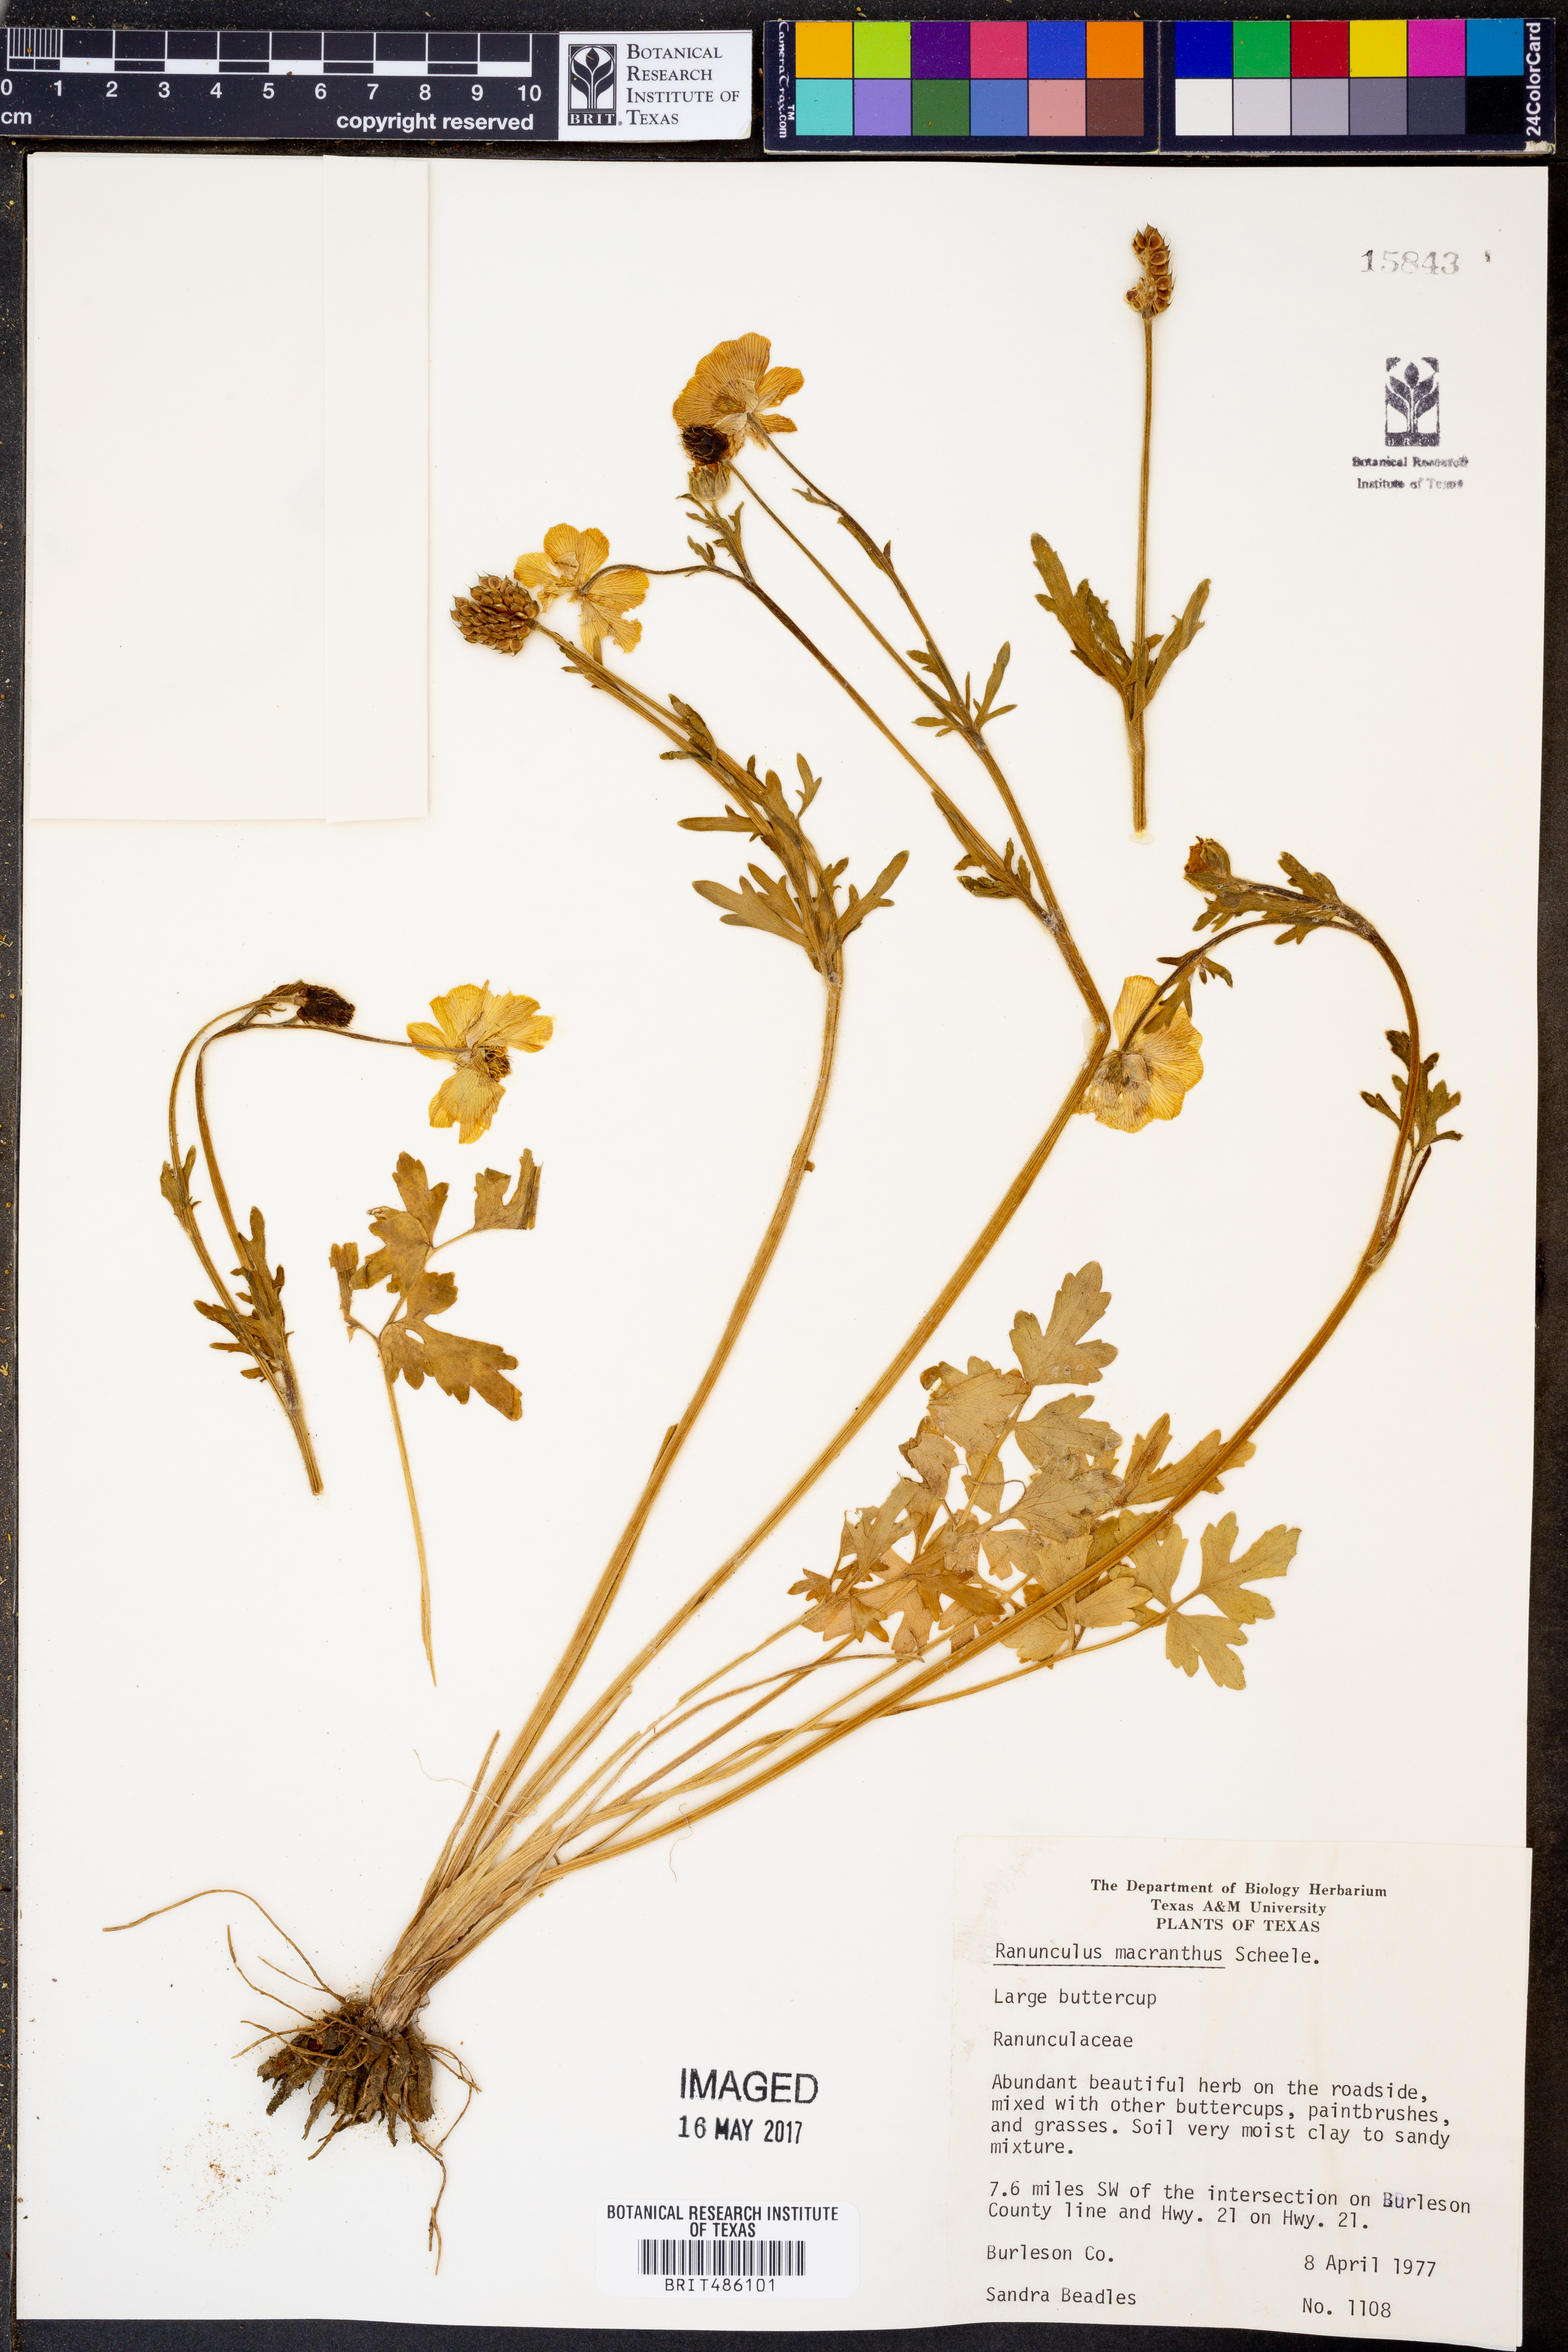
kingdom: Plantae
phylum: Tracheophyta
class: Magnoliopsida
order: Ranunculales
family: Ranunculaceae
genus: Ranunculus
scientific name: Ranunculus macranthus
